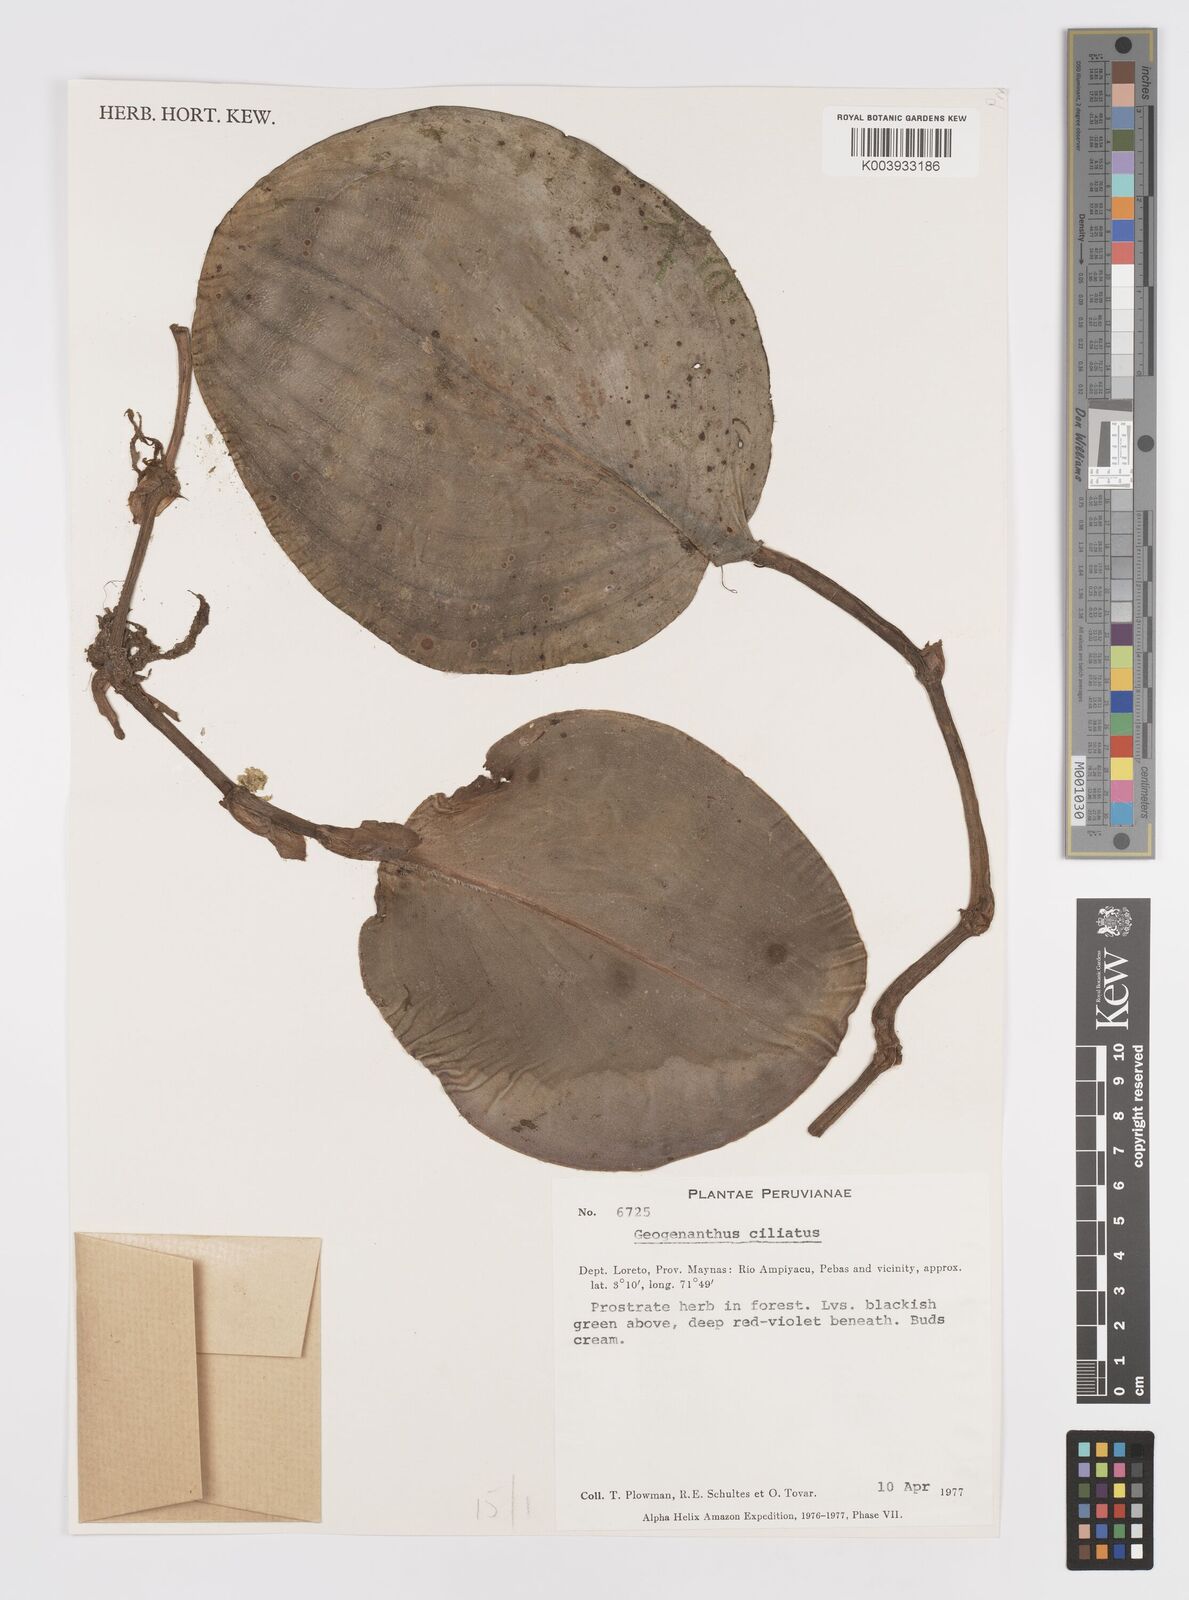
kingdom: Plantae
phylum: Tracheophyta
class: Liliopsida
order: Commelinales
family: Commelinaceae
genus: Geogenanthus
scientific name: Geogenanthus ciliatus
